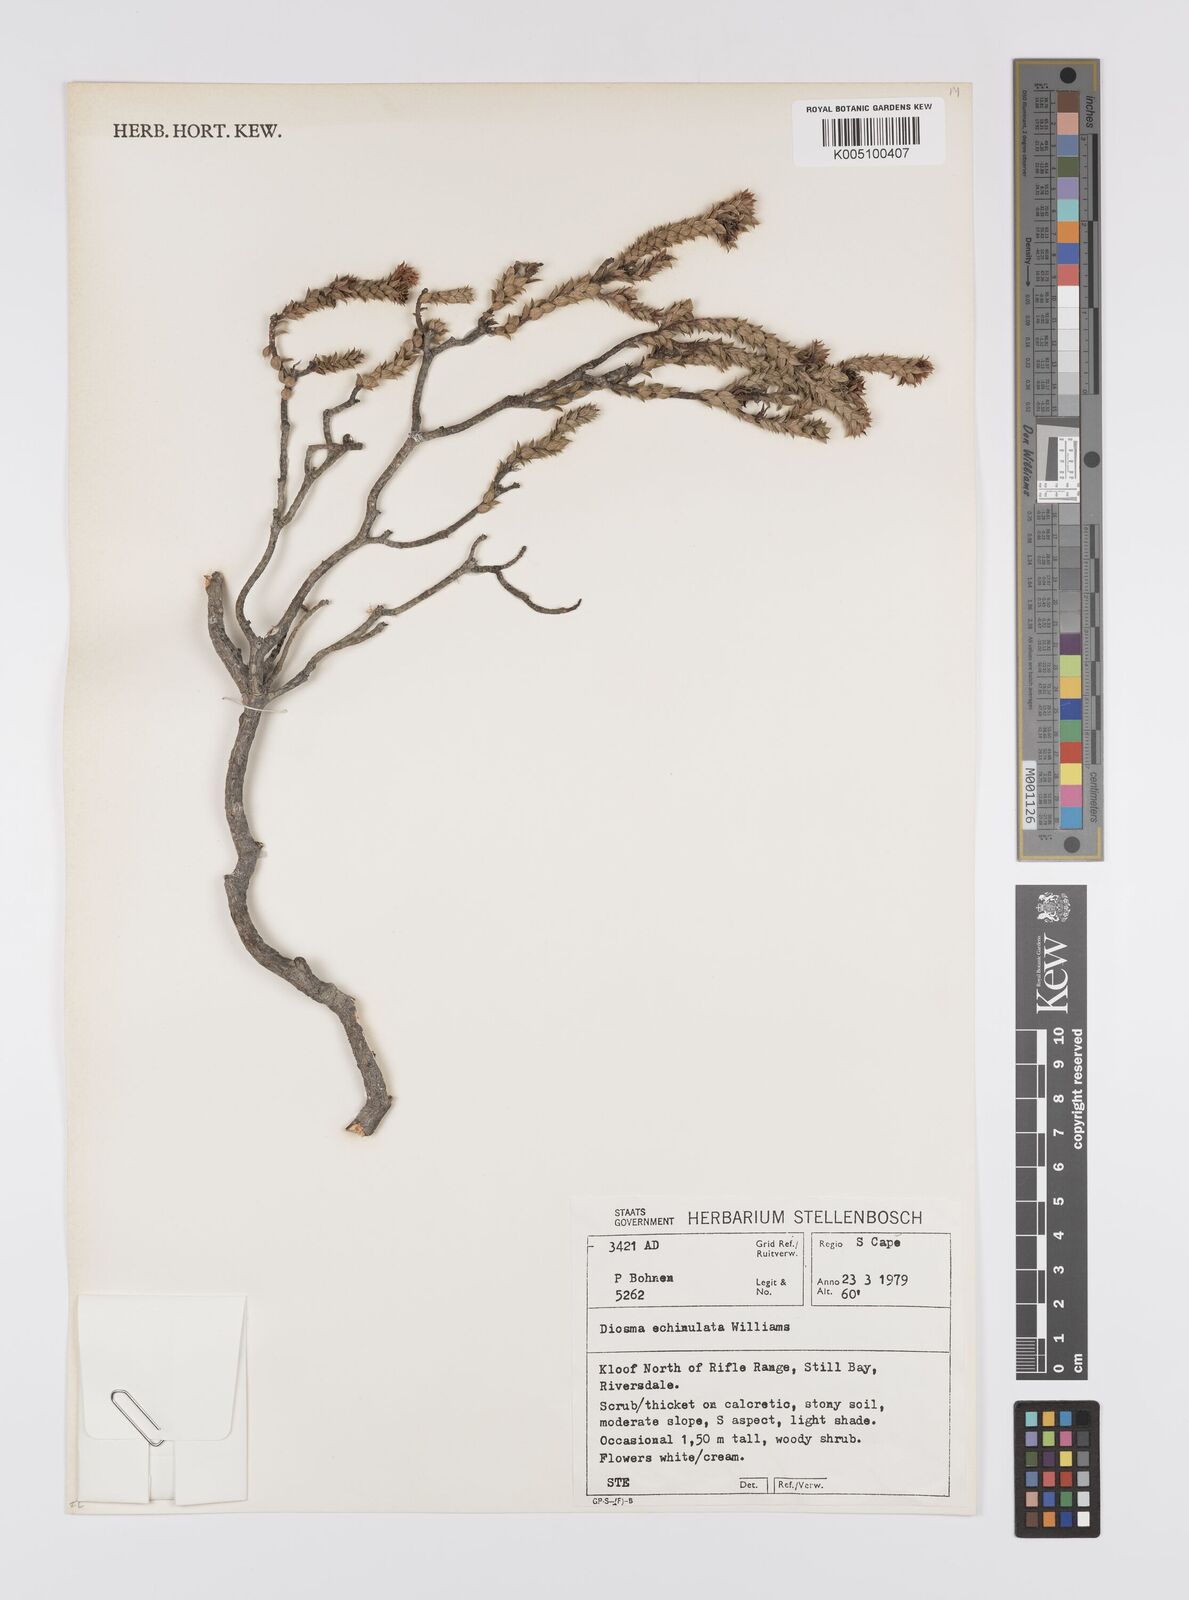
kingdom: Plantae
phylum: Tracheophyta
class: Magnoliopsida
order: Sapindales
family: Rutaceae
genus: Diosma
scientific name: Diosma echinulata
